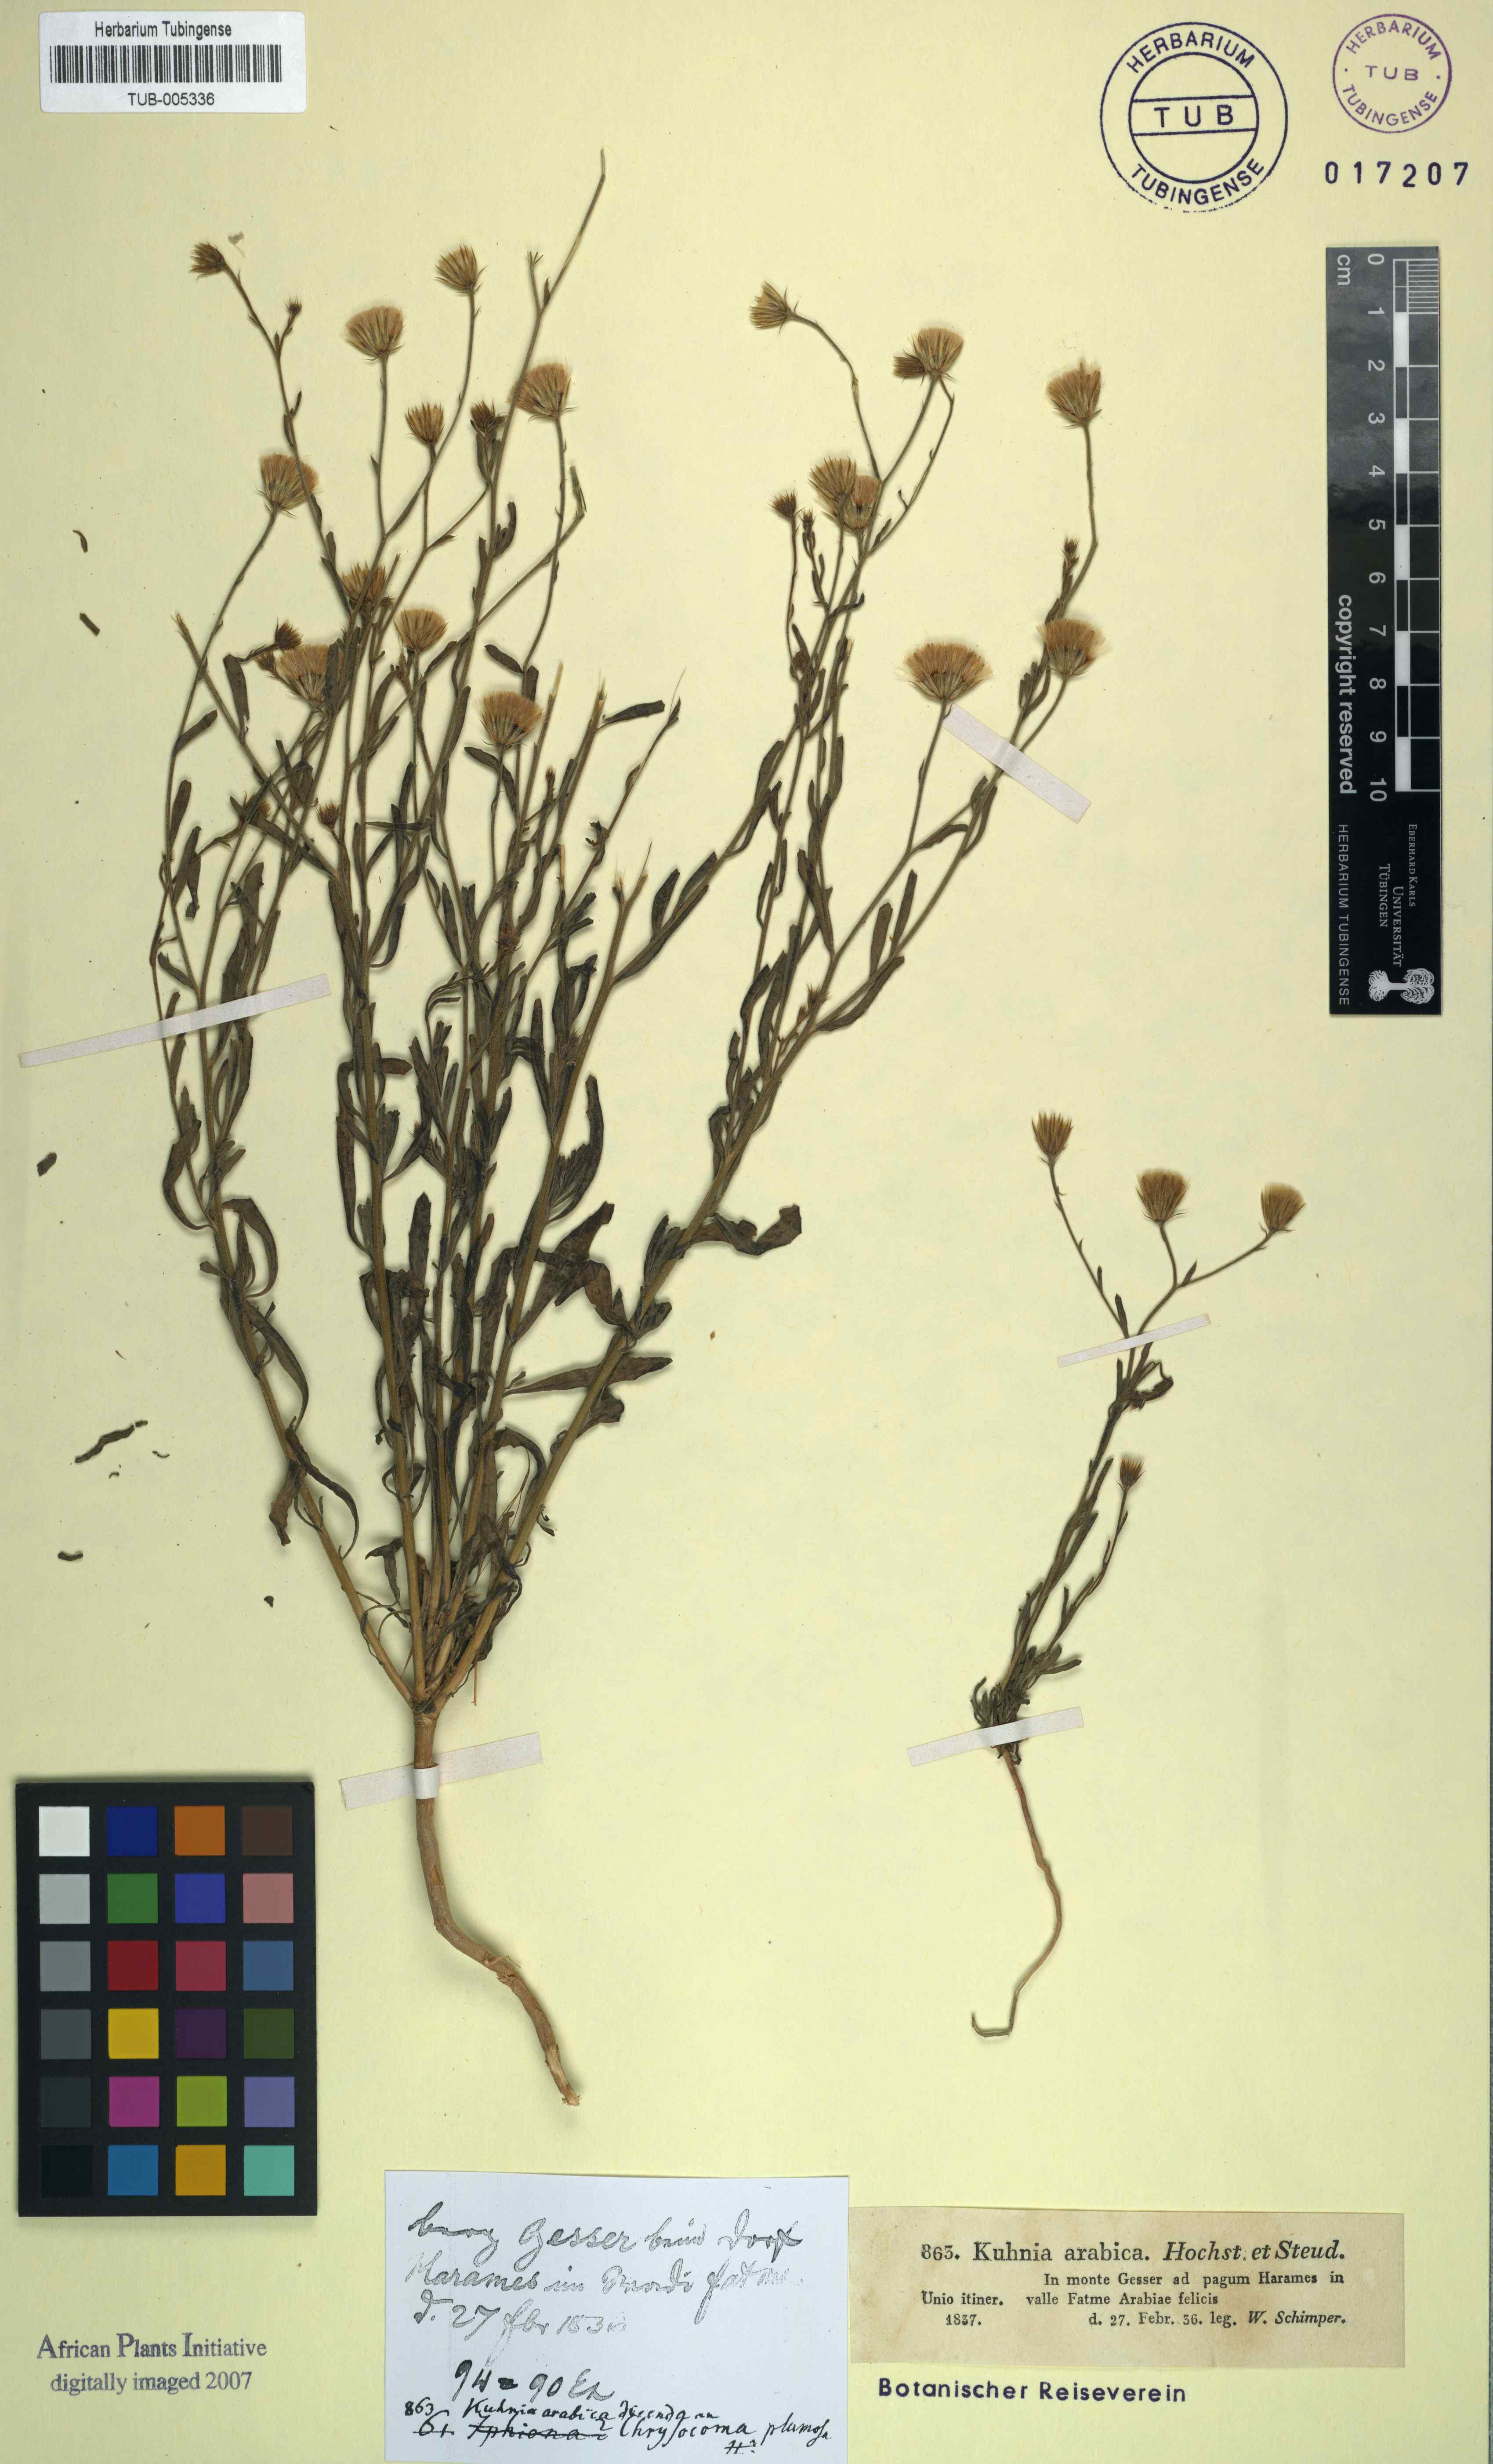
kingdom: Plantae
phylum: Tracheophyta
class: Magnoliopsida
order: Asterales
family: Asteraceae
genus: Pegolettia
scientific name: Pegolettia senegalensis
